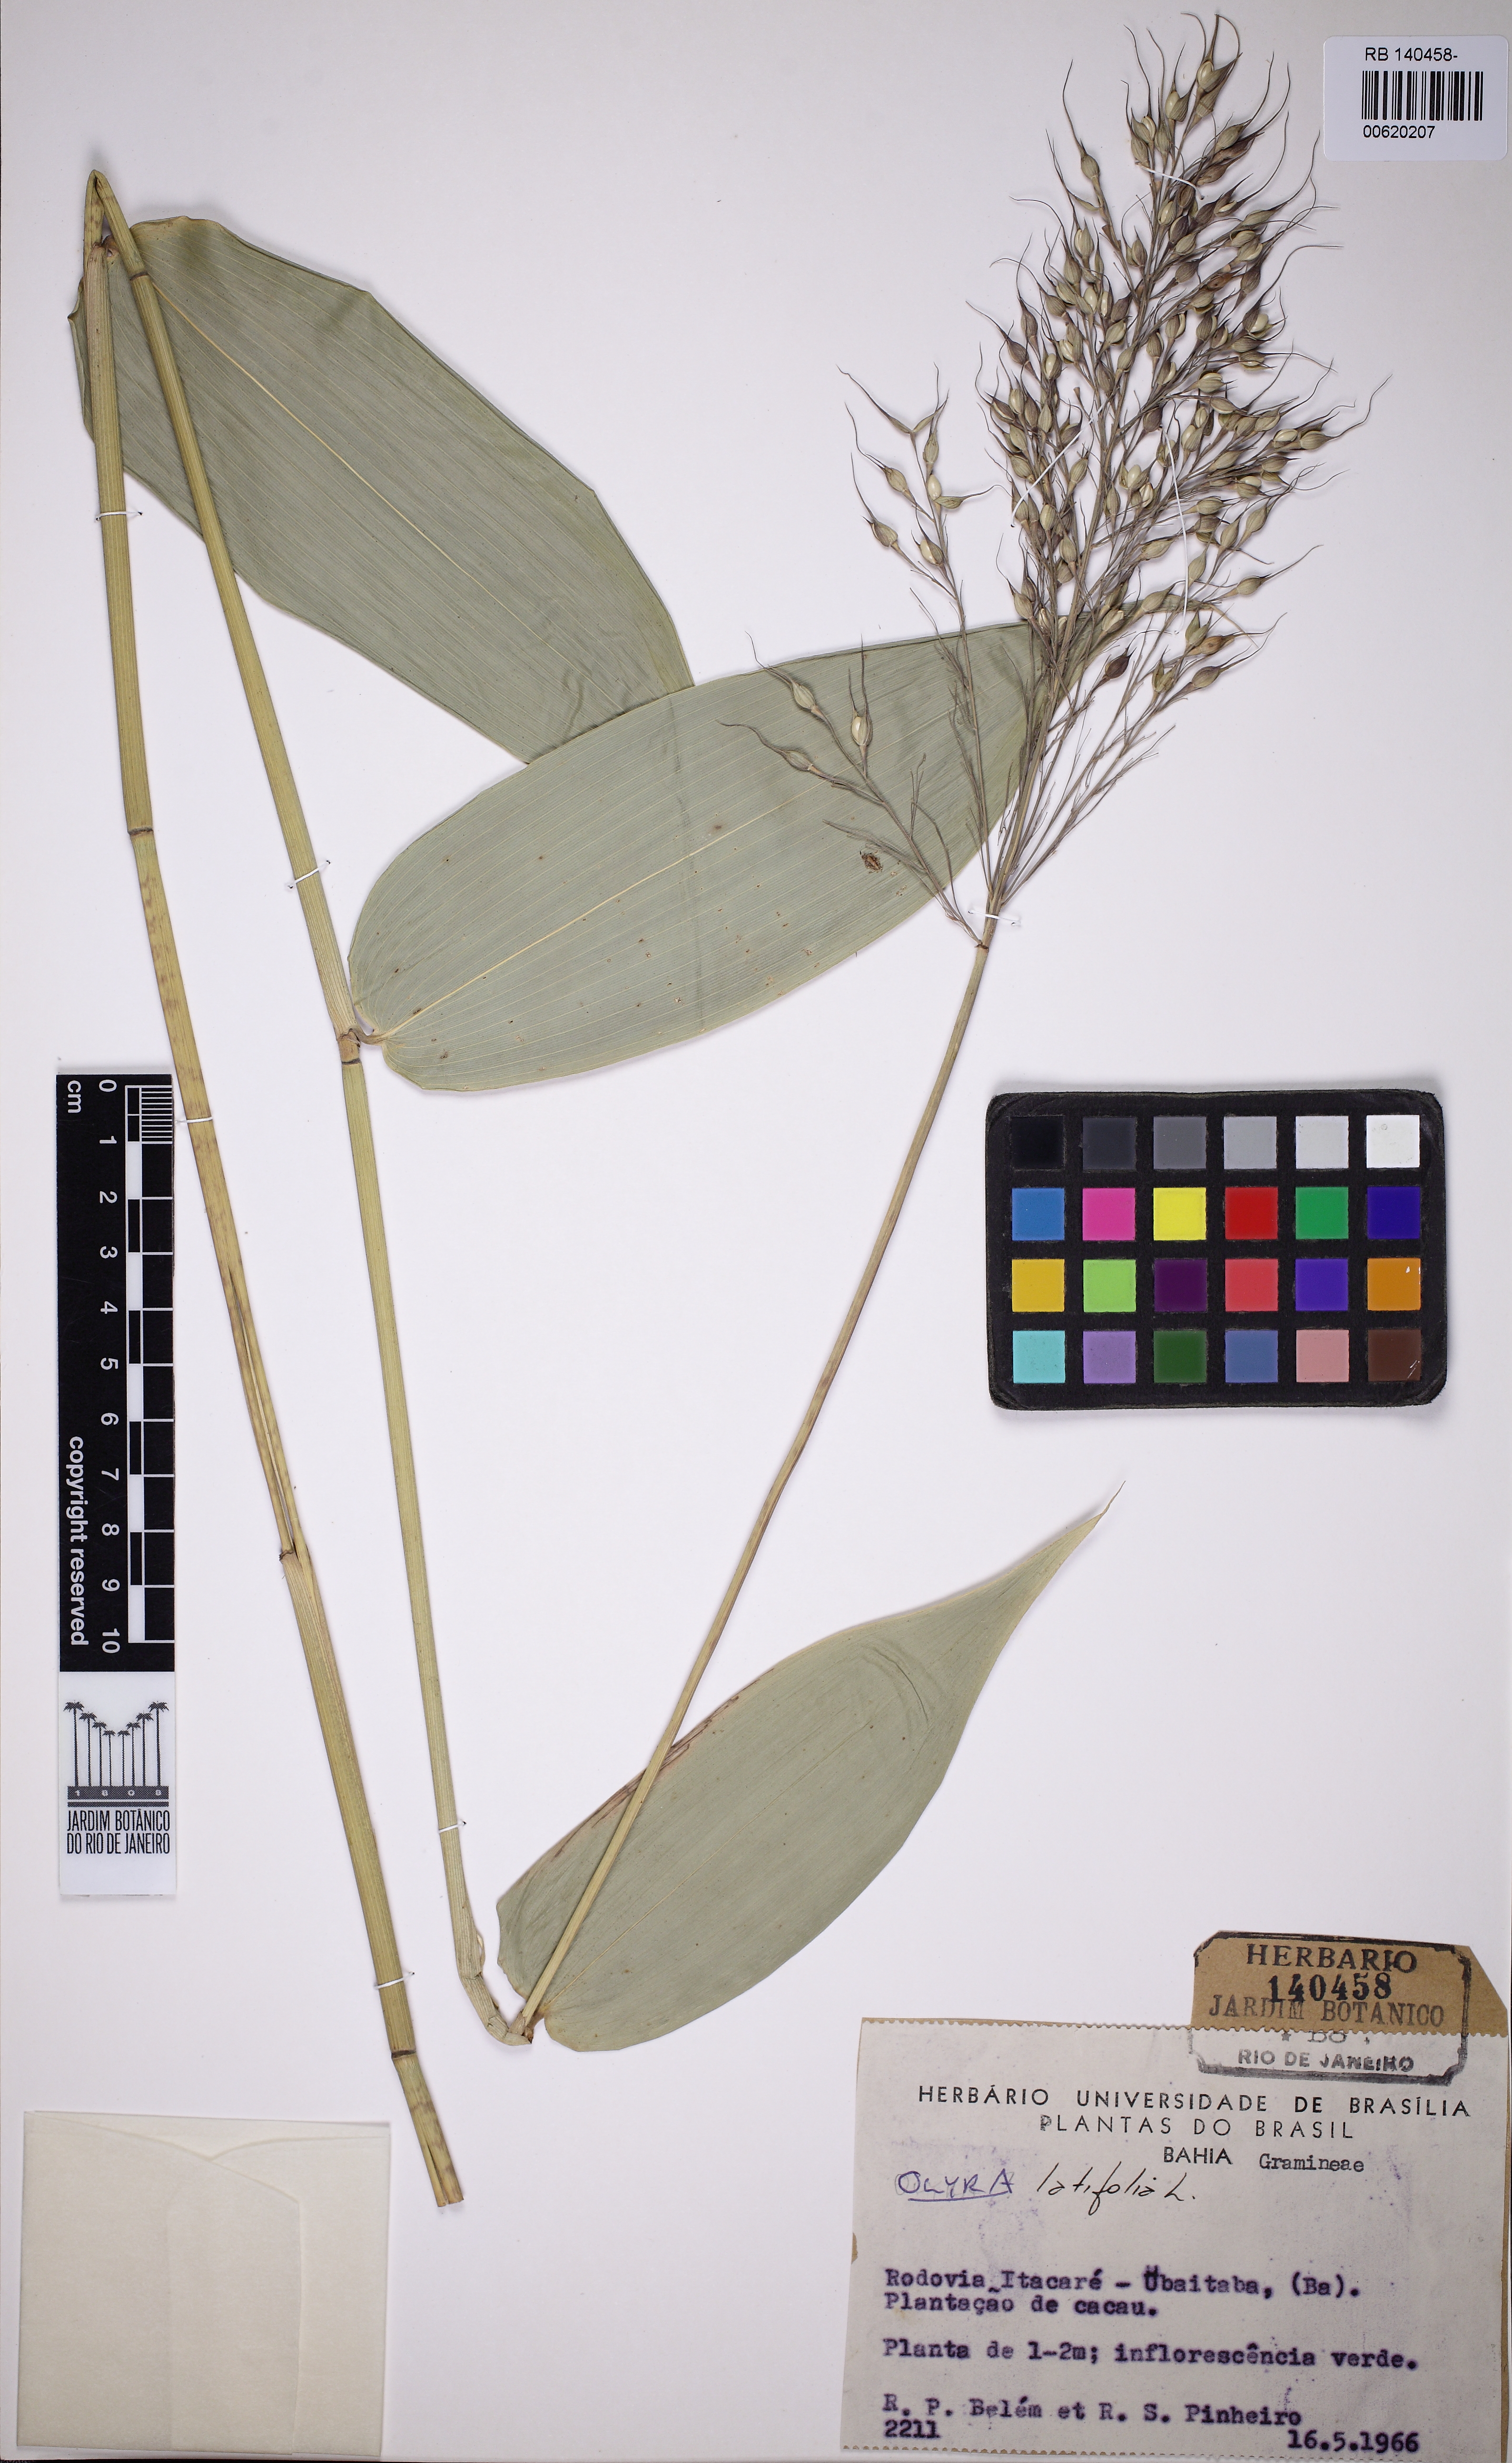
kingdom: Plantae
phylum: Tracheophyta
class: Liliopsida
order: Poales
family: Poaceae
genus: Olyra
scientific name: Olyra latifolia
